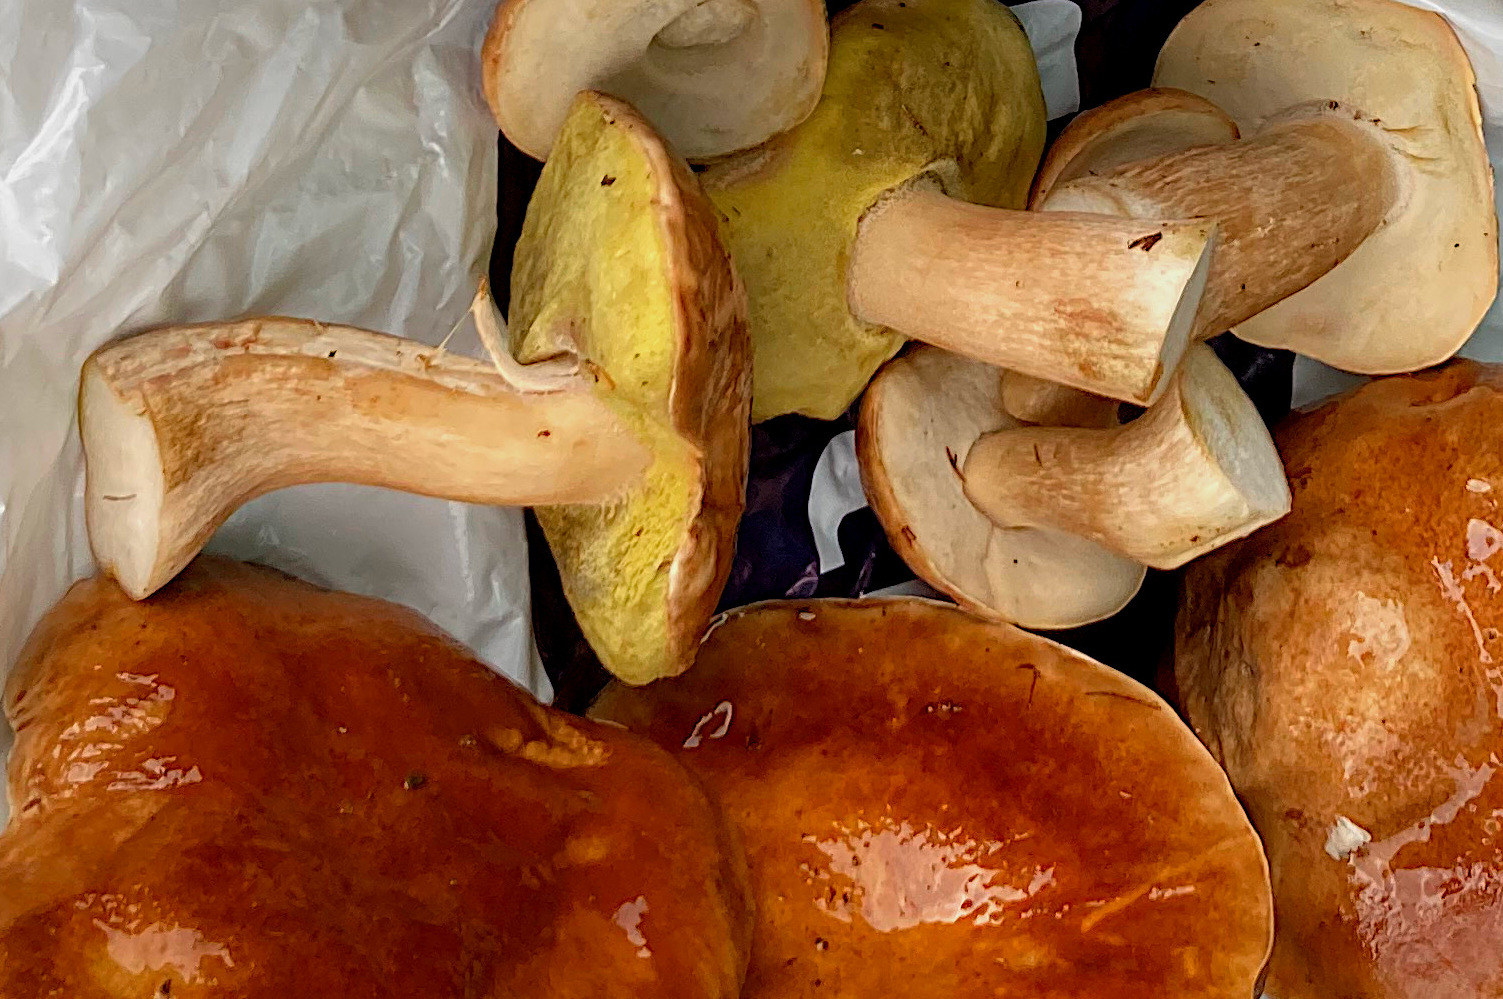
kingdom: Fungi
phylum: Basidiomycota
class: Agaricomycetes
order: Boletales
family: Boletaceae
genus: Boletus
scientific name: Boletus edulis
